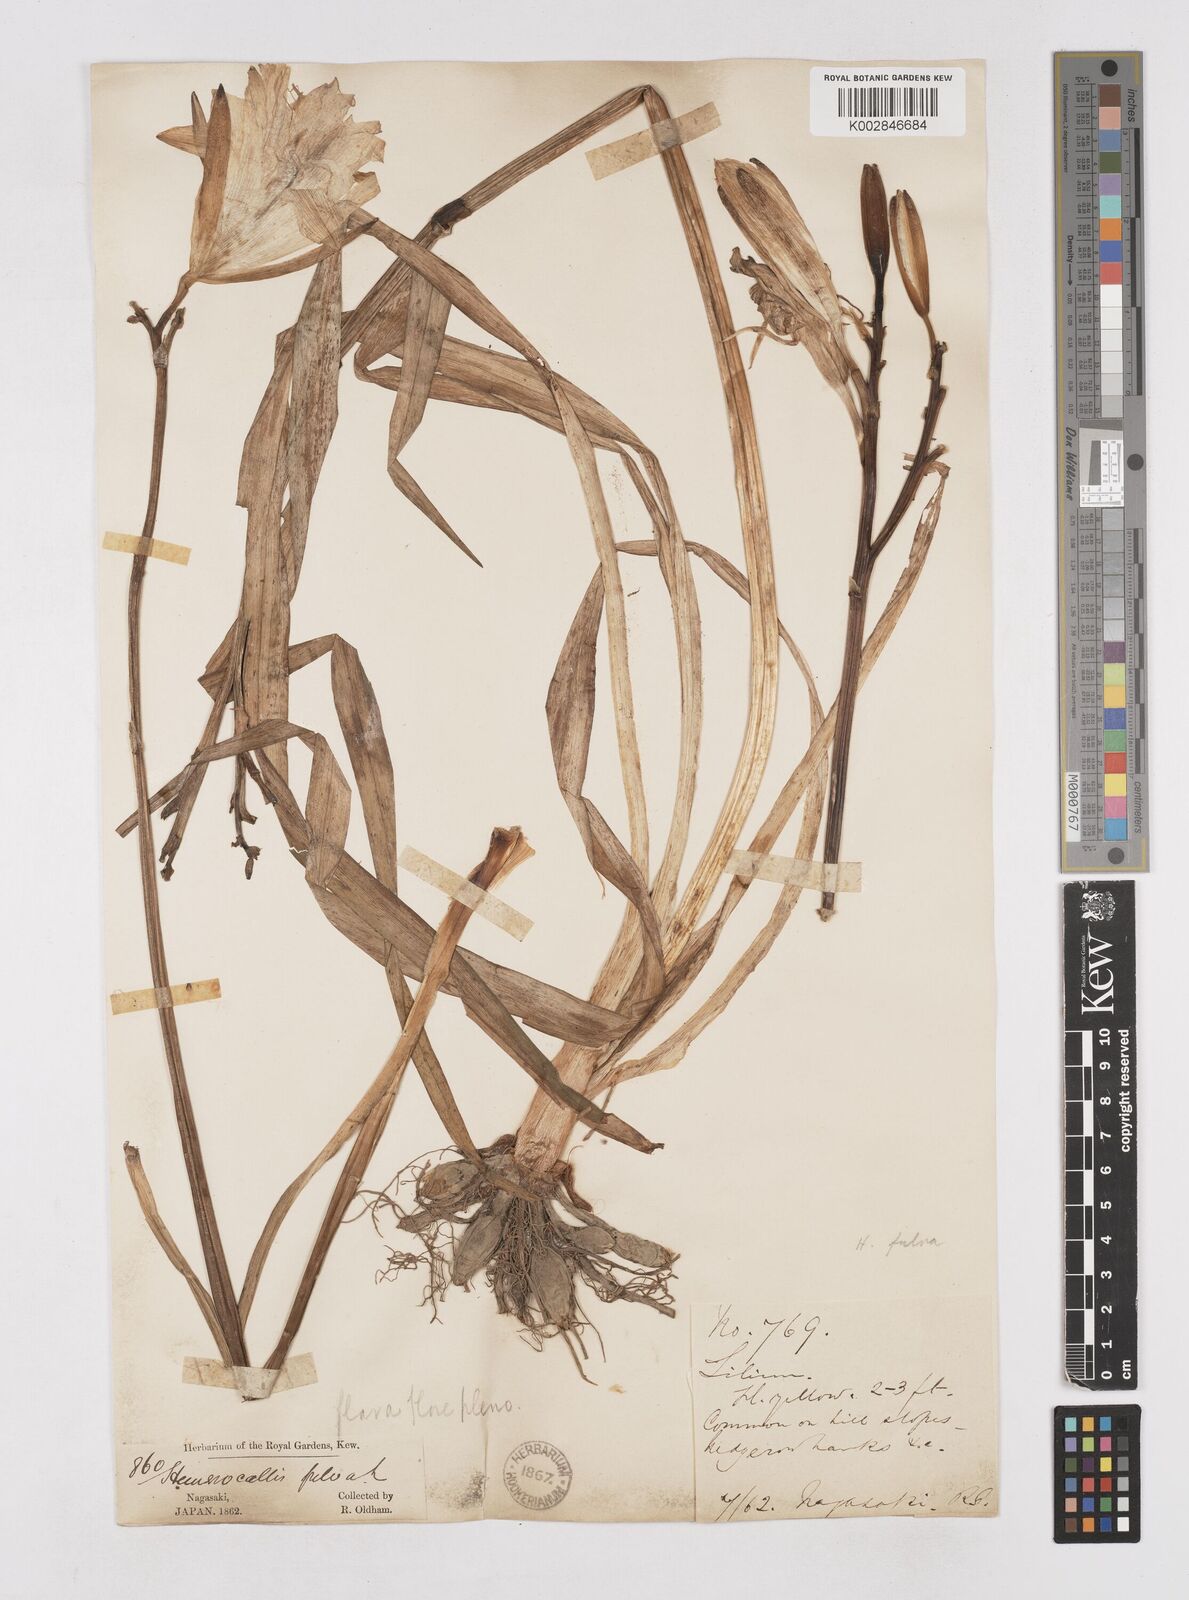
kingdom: Plantae
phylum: Tracheophyta
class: Liliopsida
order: Asparagales
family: Asphodelaceae
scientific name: Asphodelaceae
